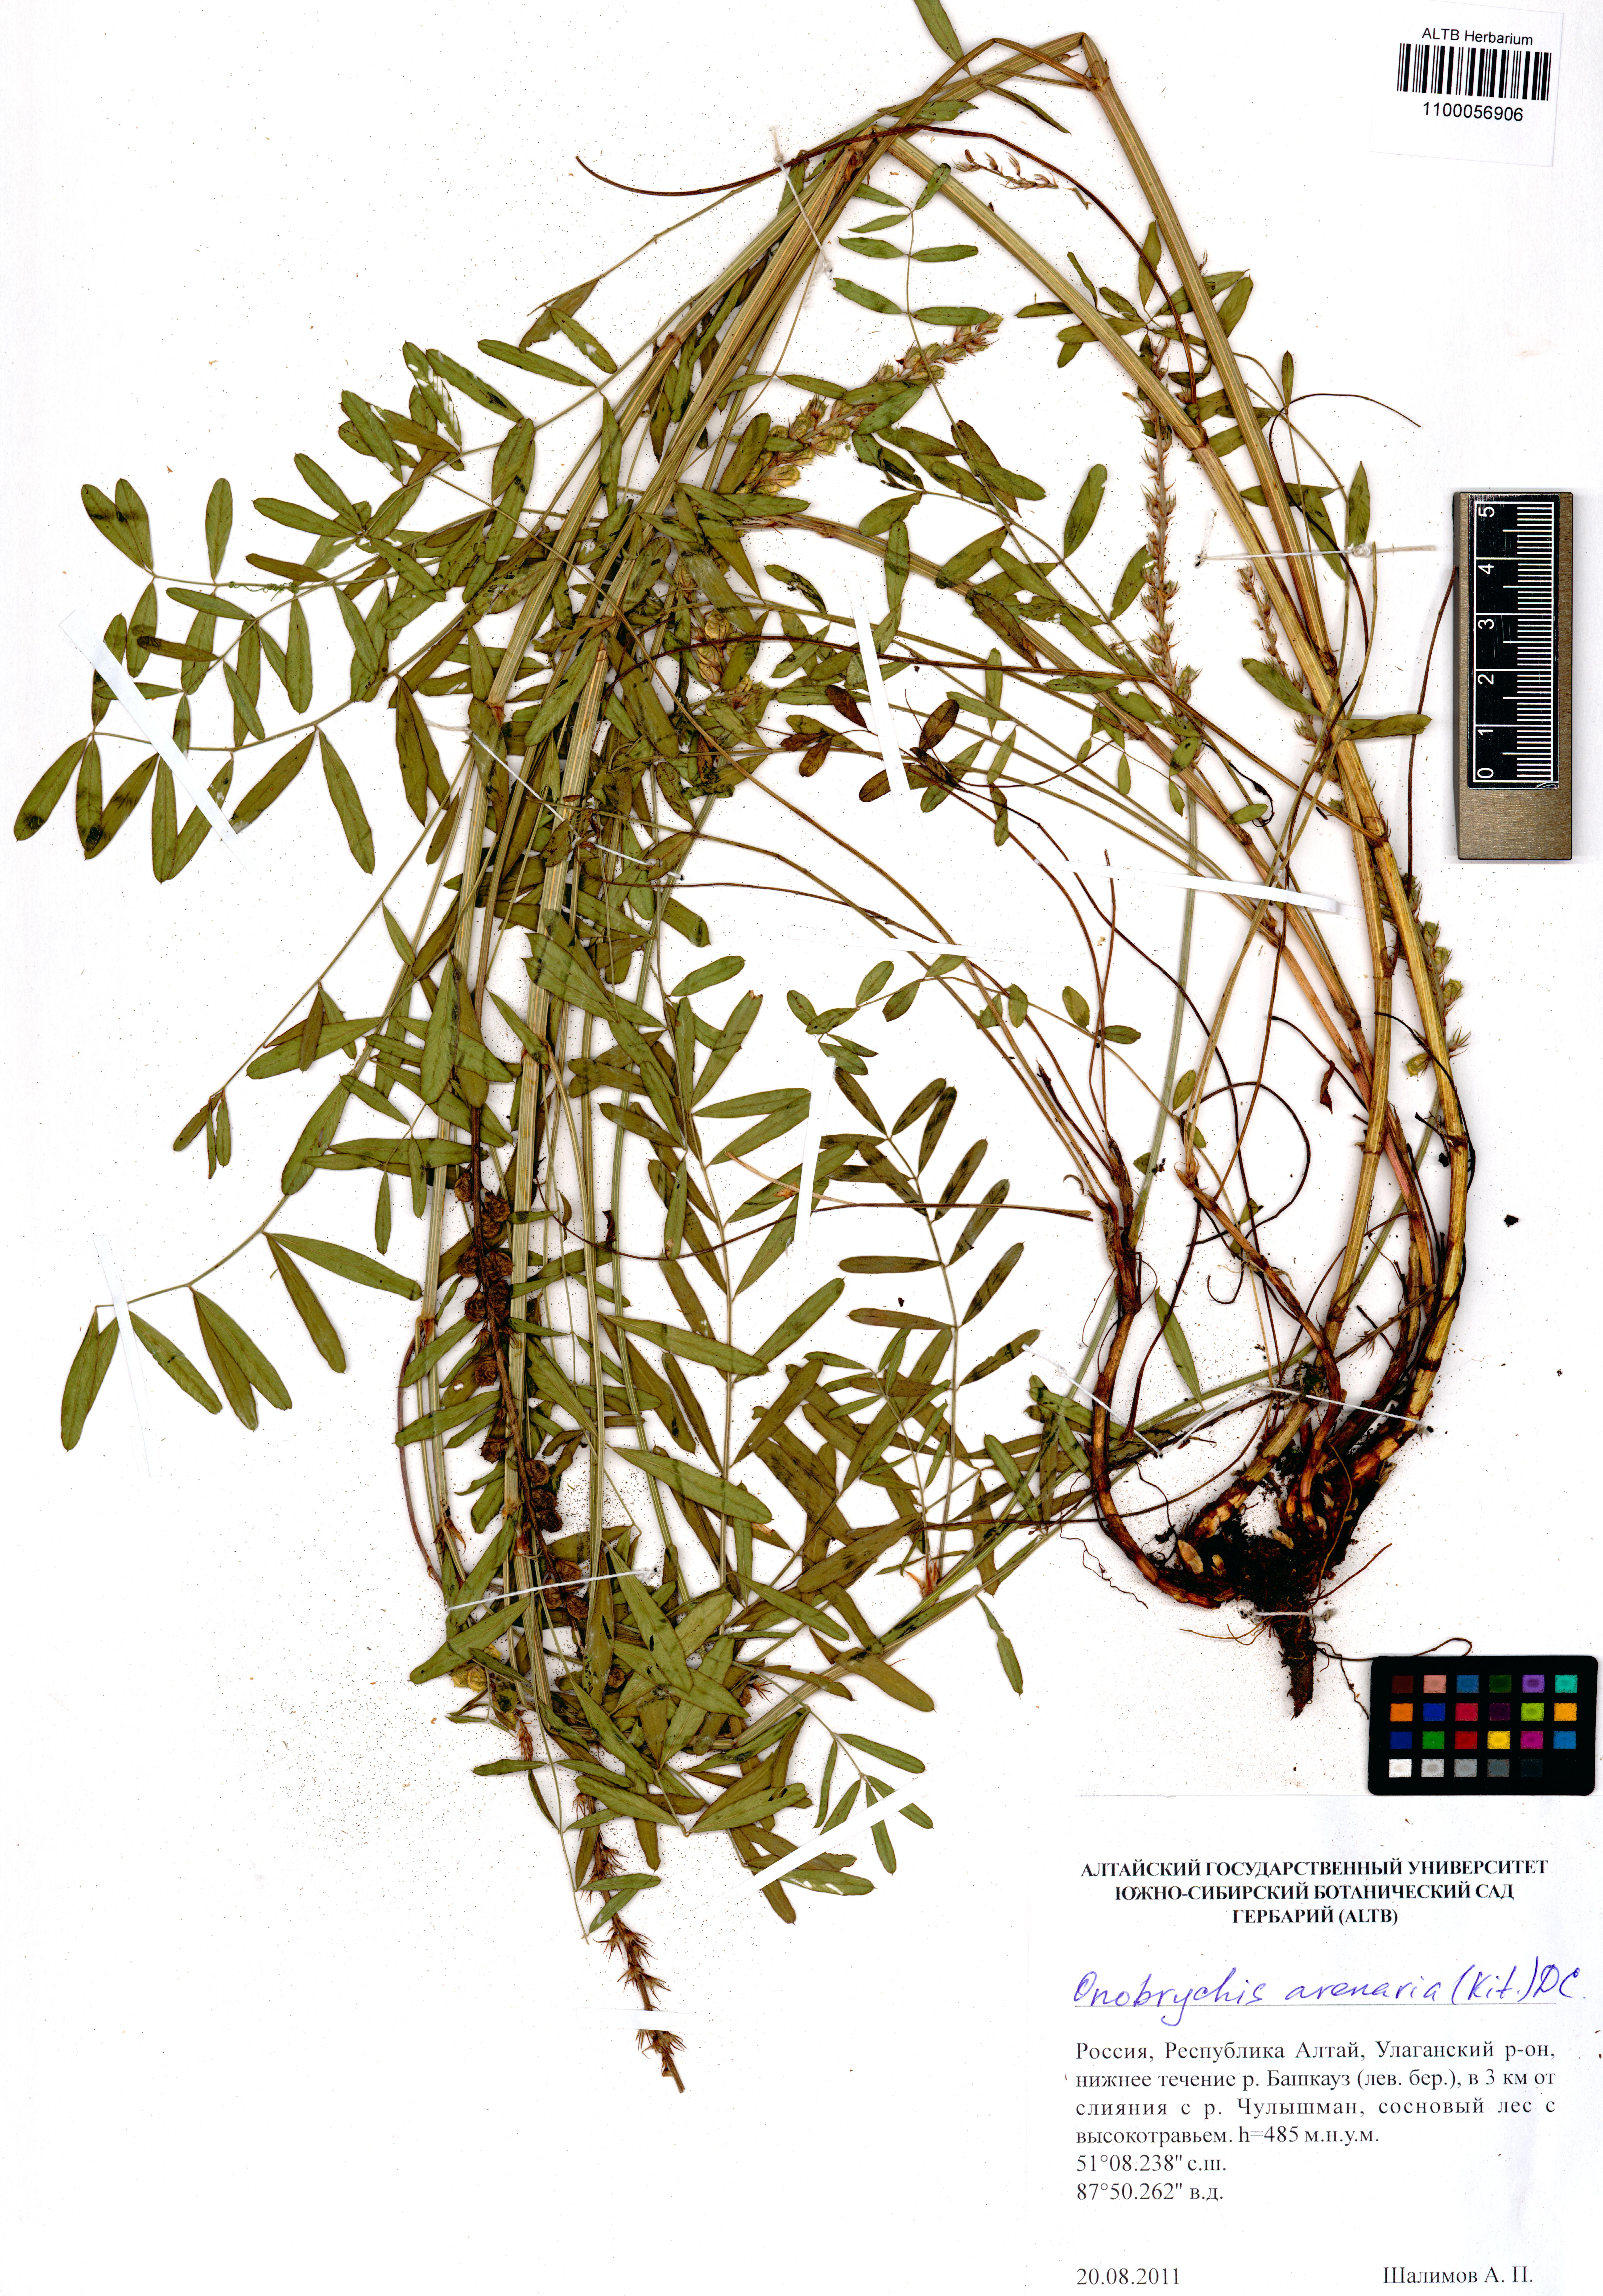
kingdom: Plantae
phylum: Tracheophyta
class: Magnoliopsida
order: Fabales
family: Fabaceae
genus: Onobrychis
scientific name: Onobrychis arenaria
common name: Sand esparcet
